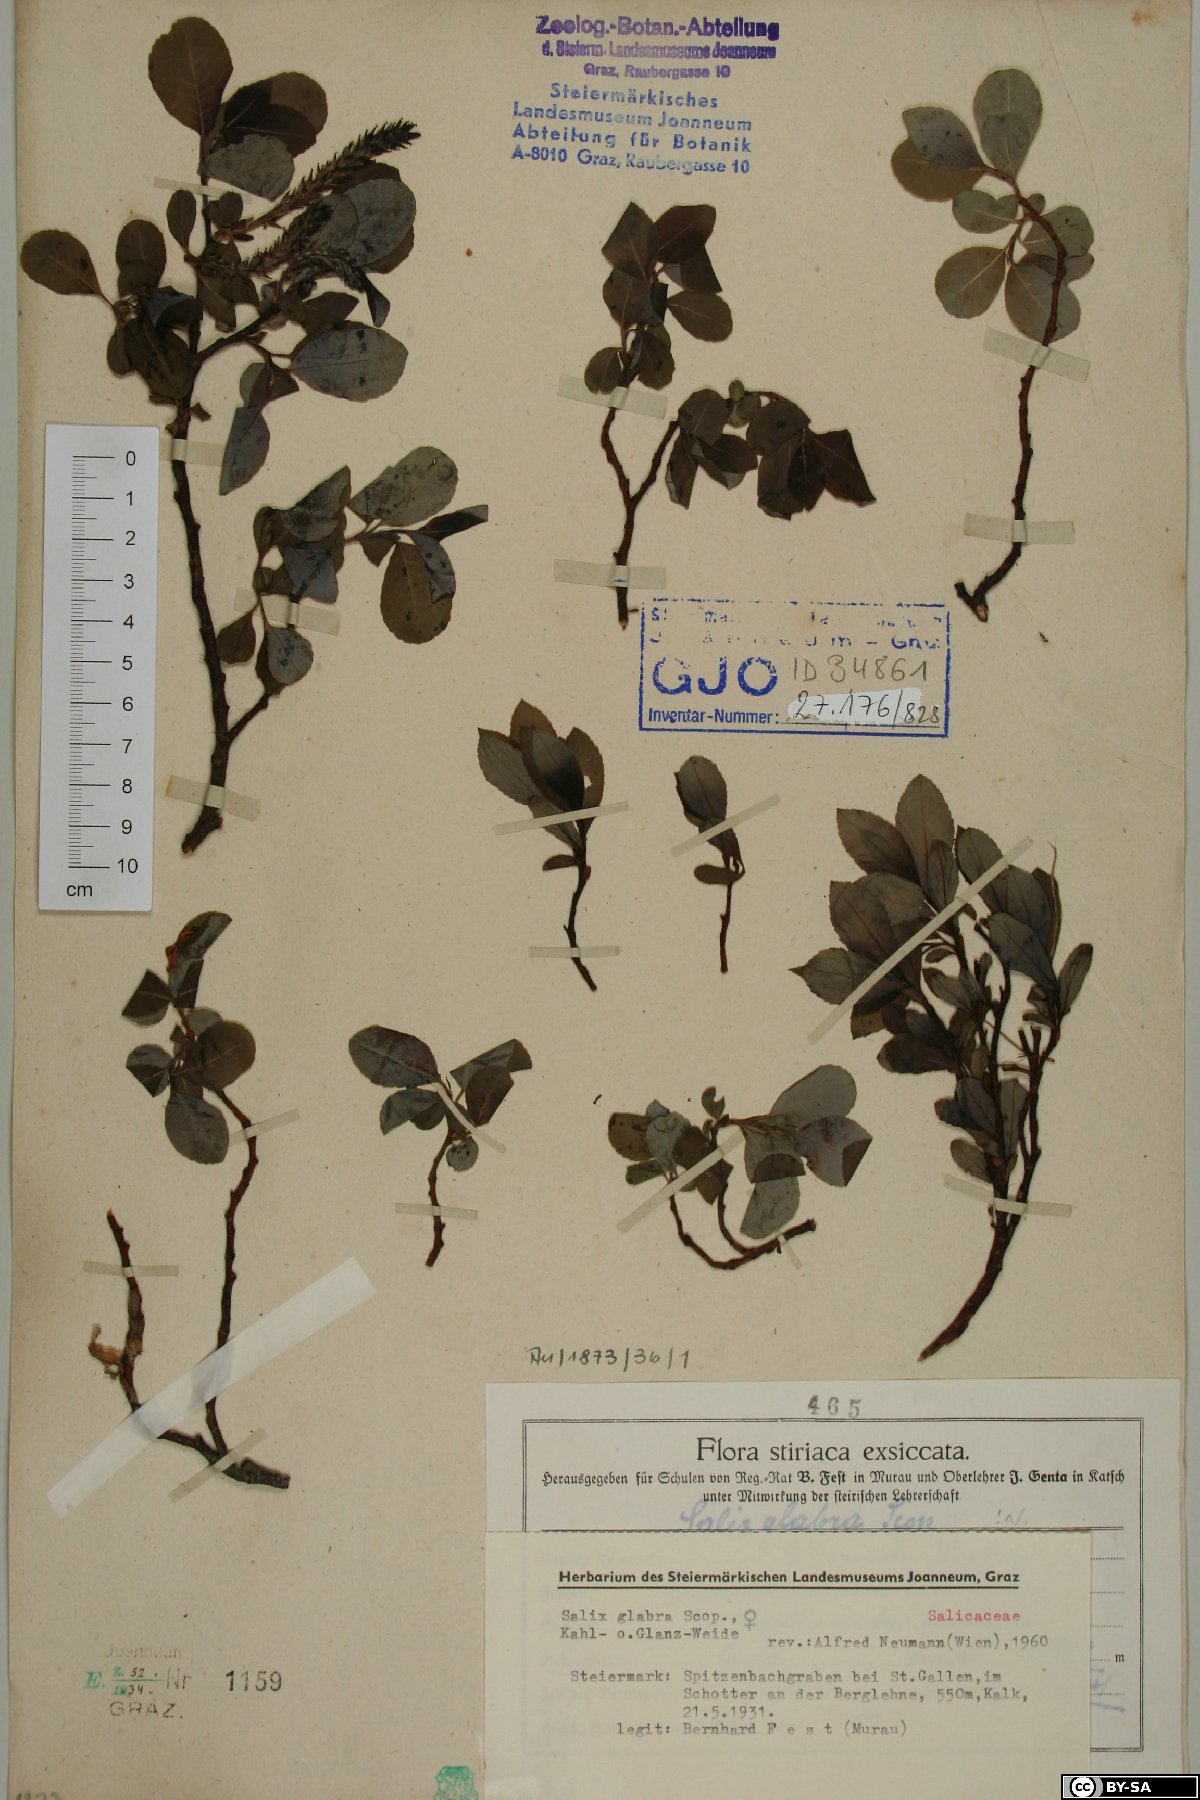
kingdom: Plantae
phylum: Tracheophyta
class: Magnoliopsida
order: Malpighiales
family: Salicaceae
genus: Salix
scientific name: Salix glabra
